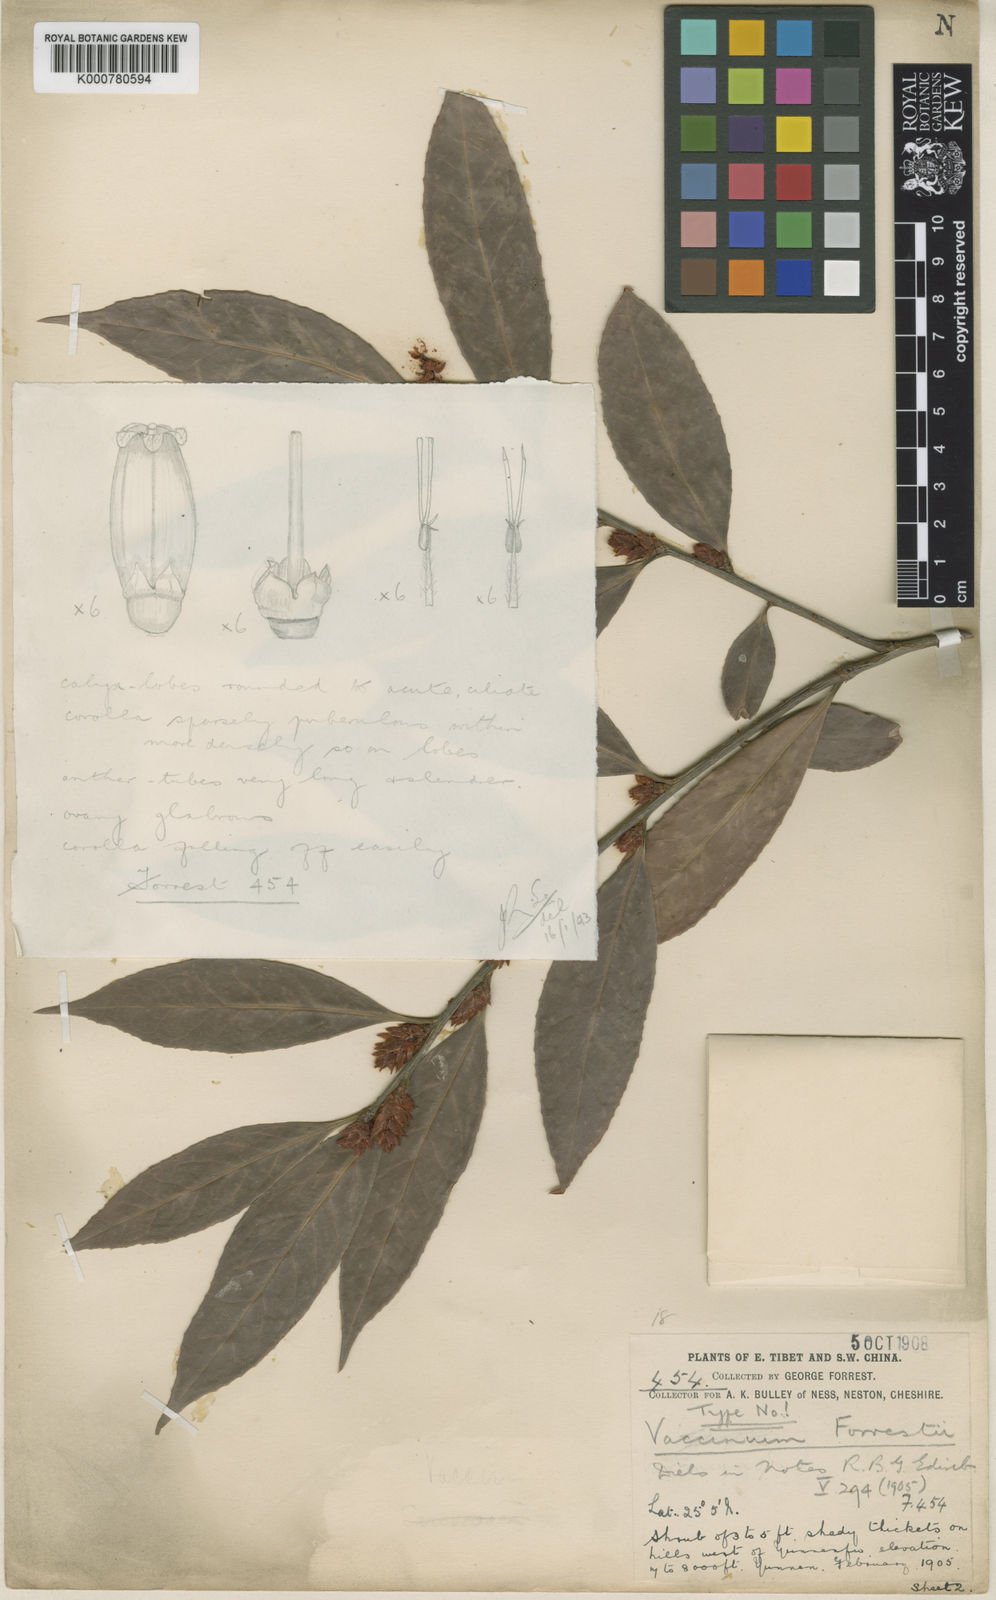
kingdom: Plantae
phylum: Tracheophyta
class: Magnoliopsida
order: Ericales
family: Ericaceae
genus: Vaccinium
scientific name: Vaccinium sprengelii
